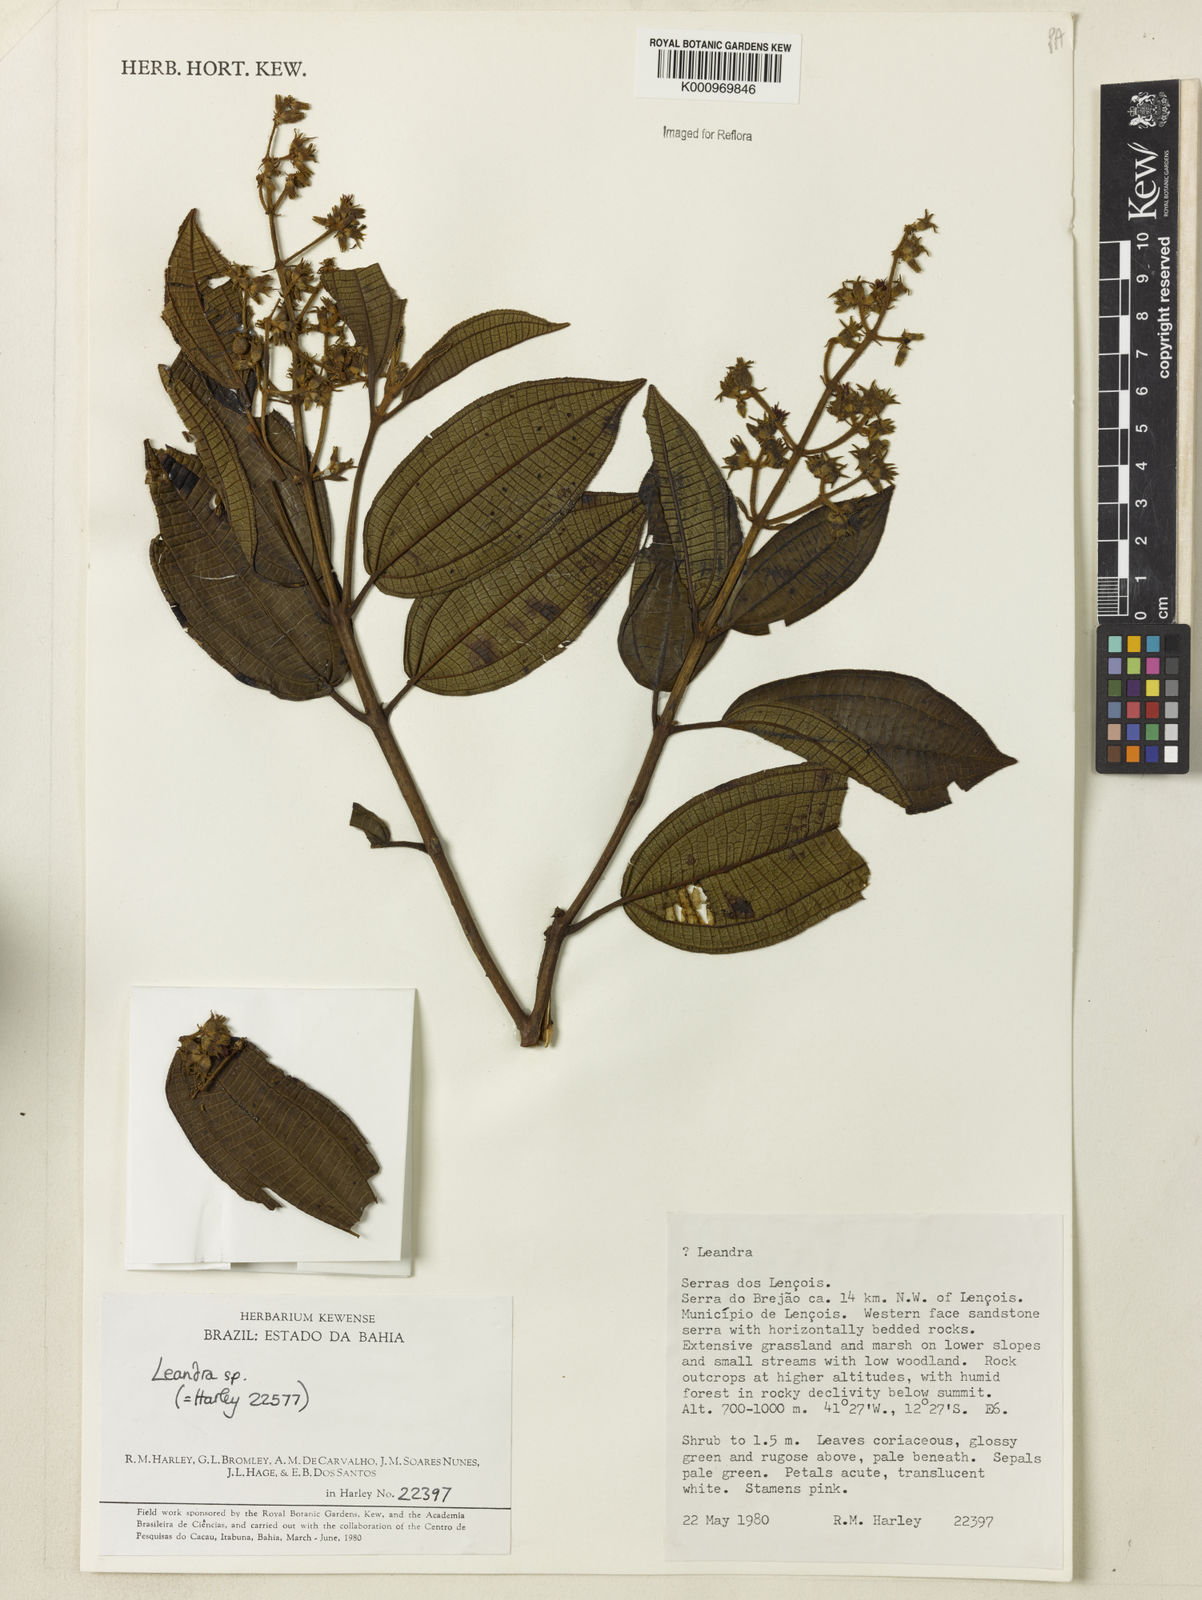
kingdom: Plantae
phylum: Tracheophyta
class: Magnoliopsida
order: Myrtales
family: Melastomataceae
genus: Miconia
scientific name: Miconia
